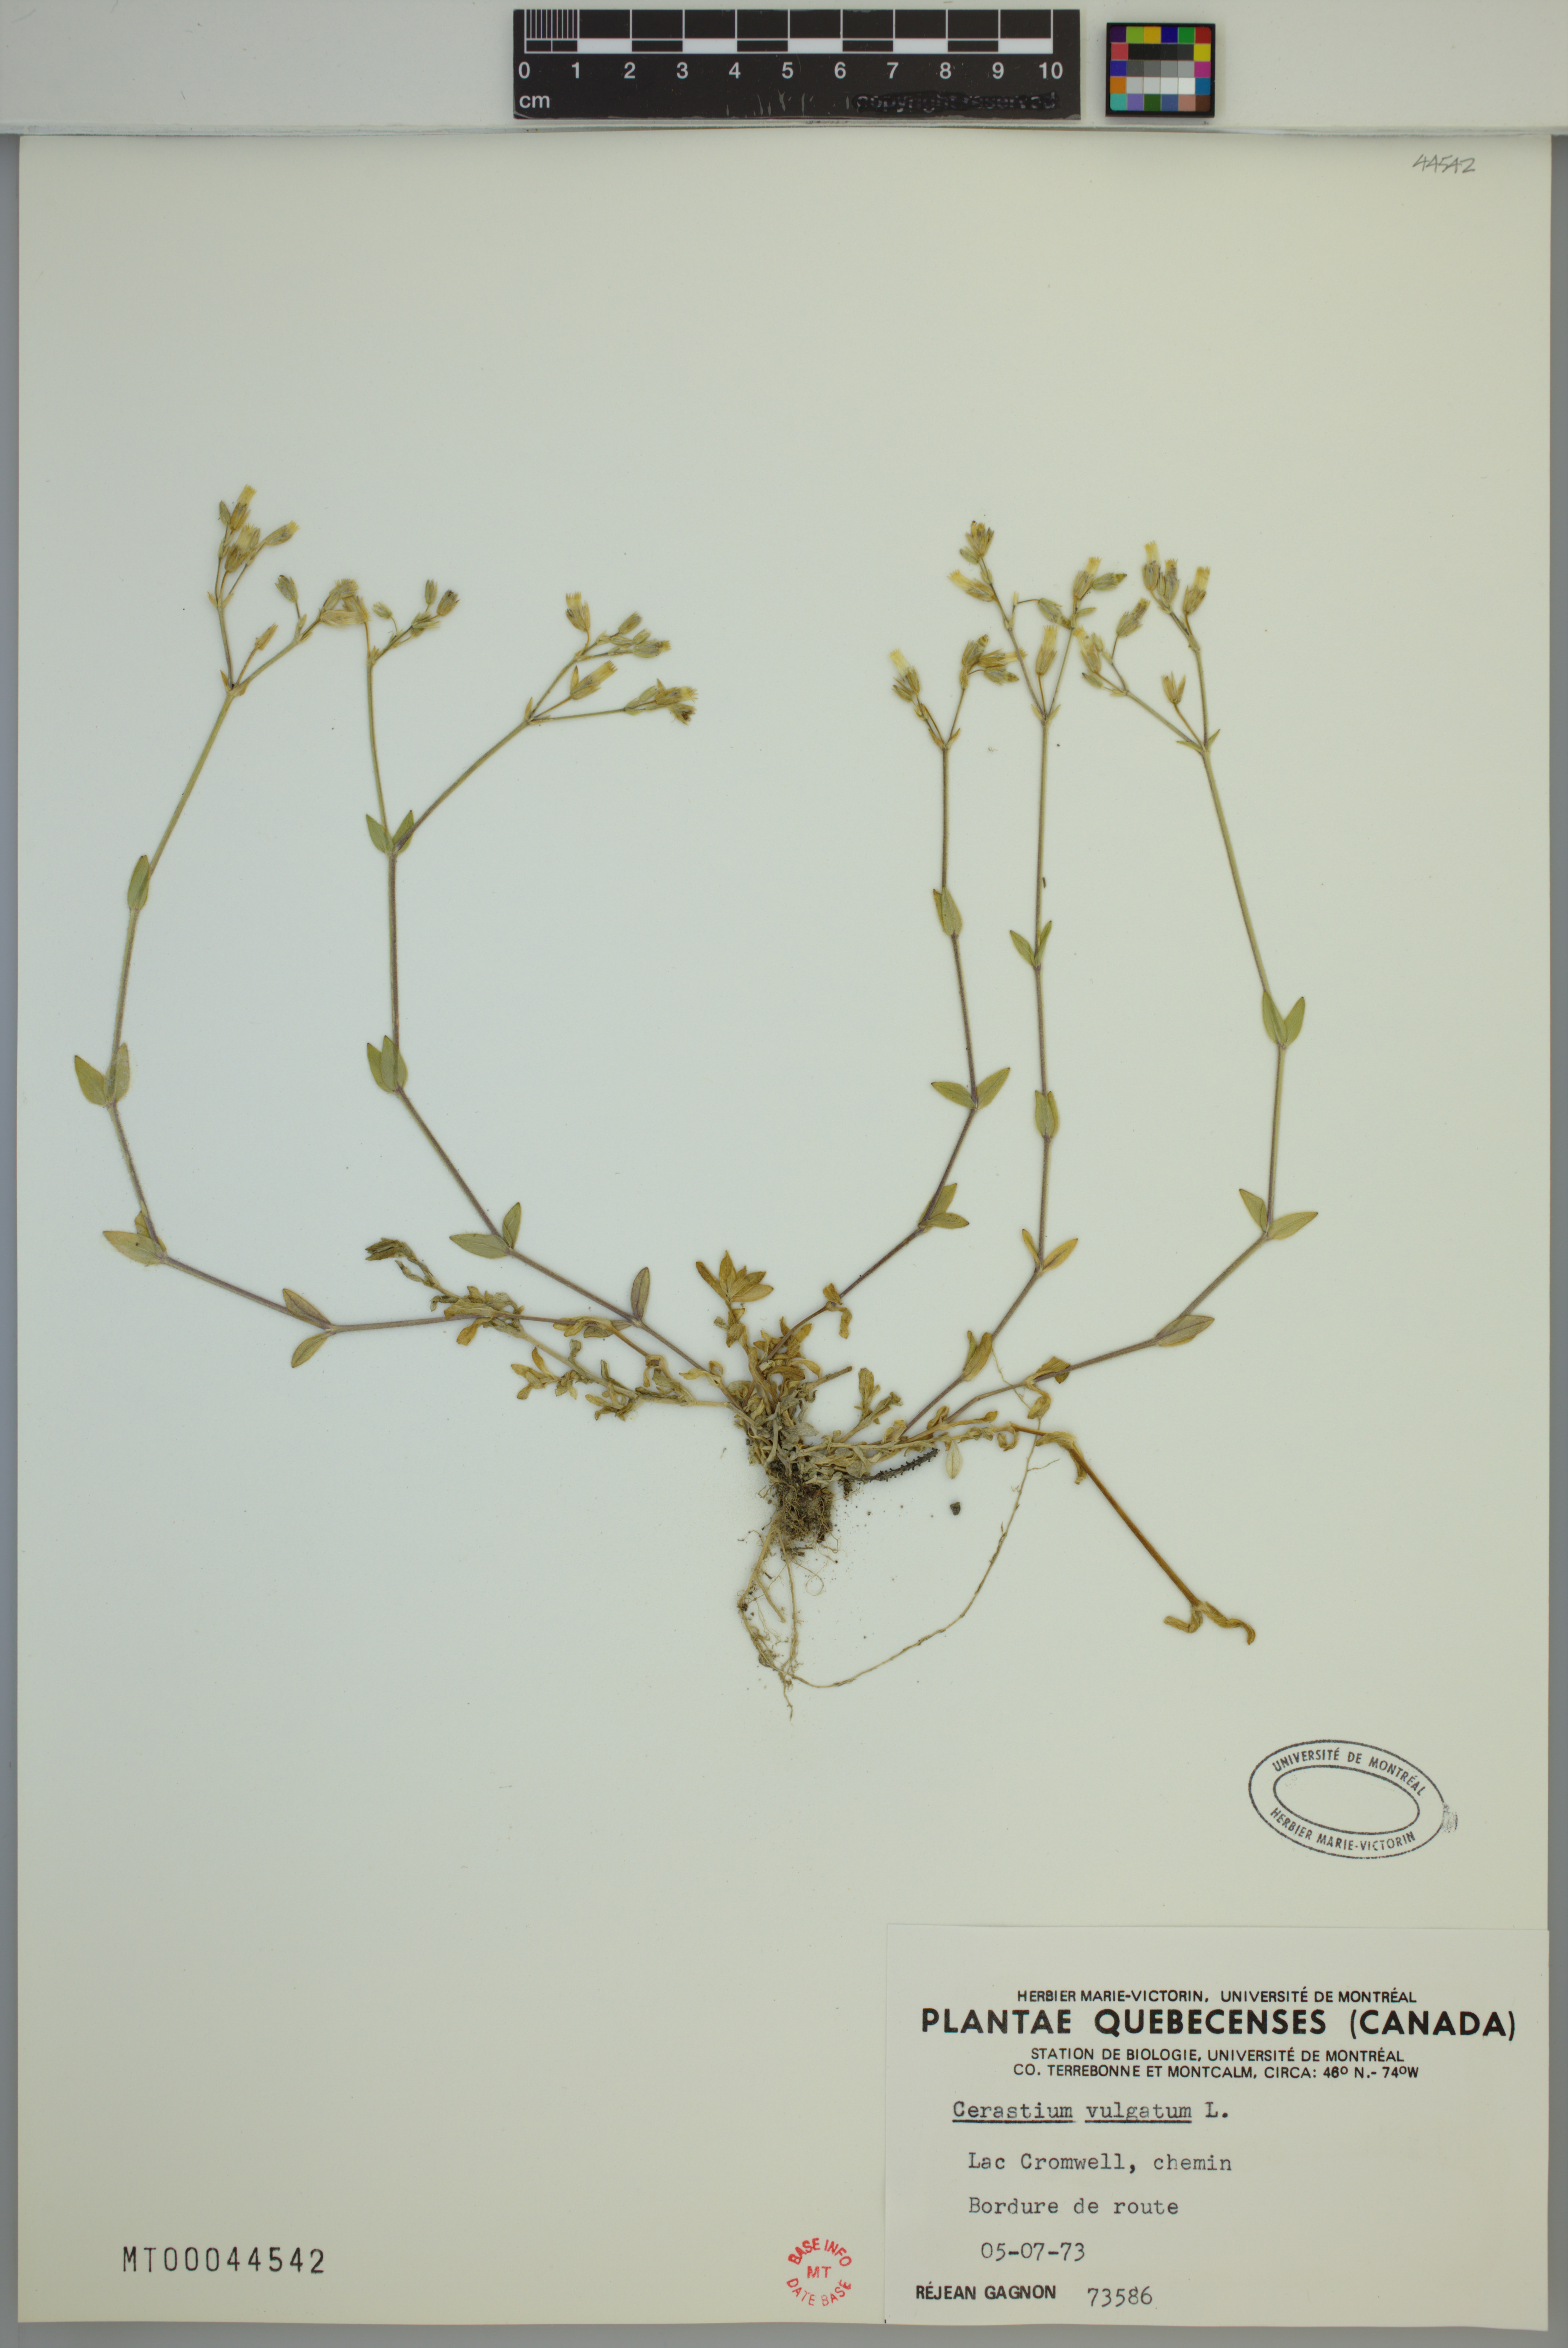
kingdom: Plantae
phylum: Tracheophyta
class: Magnoliopsida
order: Caryophyllales
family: Caryophyllaceae
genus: Cerastium
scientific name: Cerastium holosteoides
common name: Big chickweed
